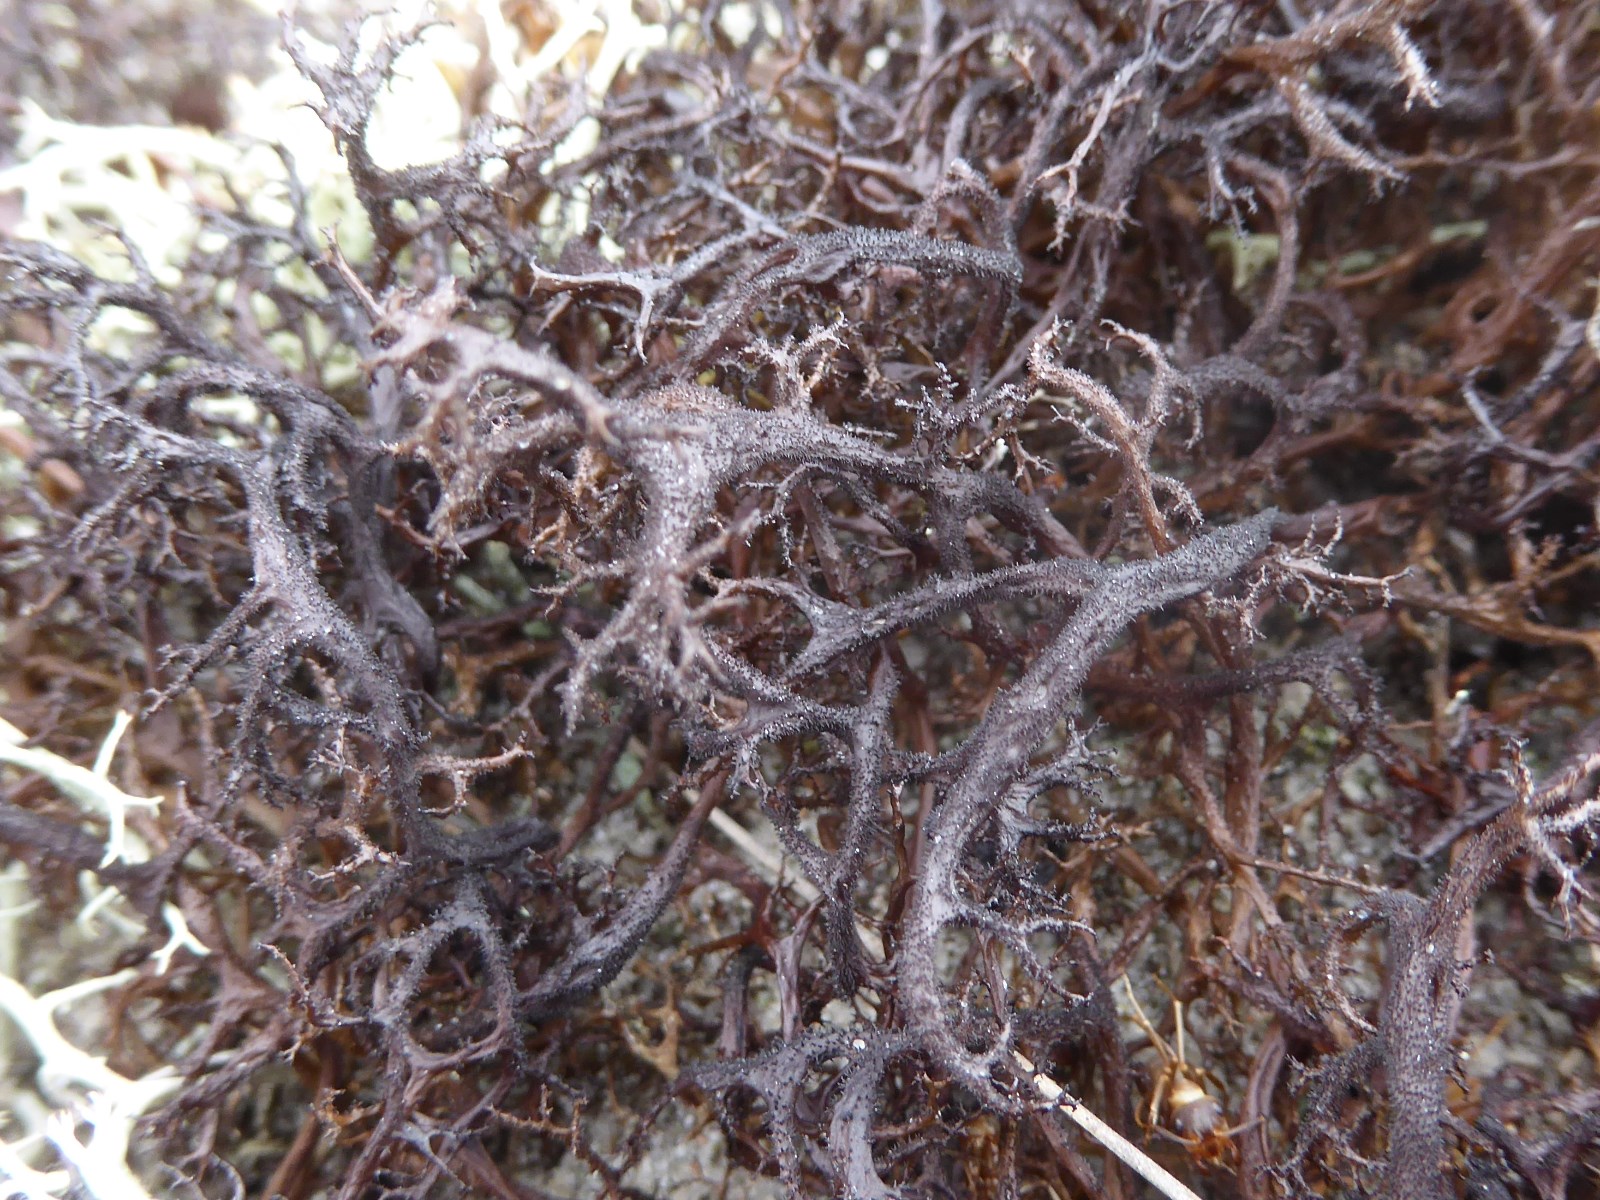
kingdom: Fungi
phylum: Ascomycota
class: Lecanoromycetes
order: Lecanorales
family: Parmeliaceae
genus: Cetraria
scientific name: Cetraria aculeata
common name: grubet tjørnelav
